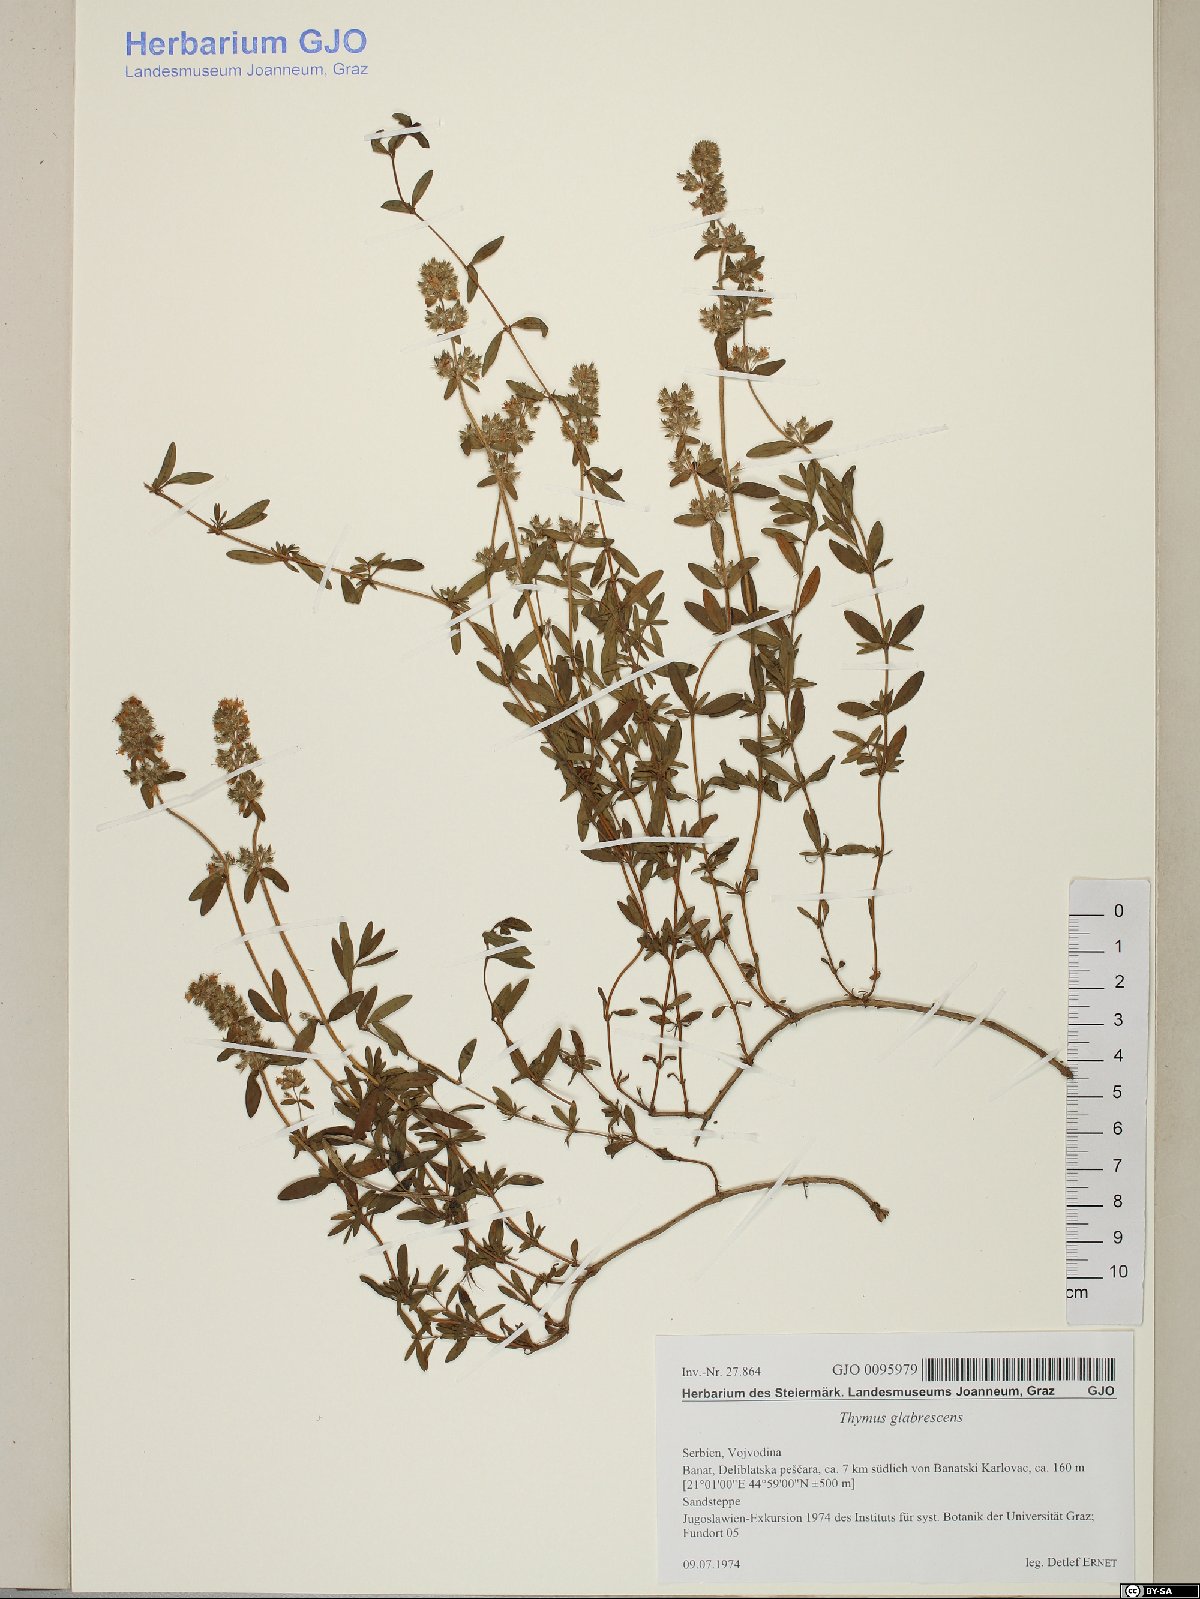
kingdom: Plantae
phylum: Tracheophyta
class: Magnoliopsida
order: Lamiales
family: Lamiaceae
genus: Thymus
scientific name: Thymus odoratissimus
